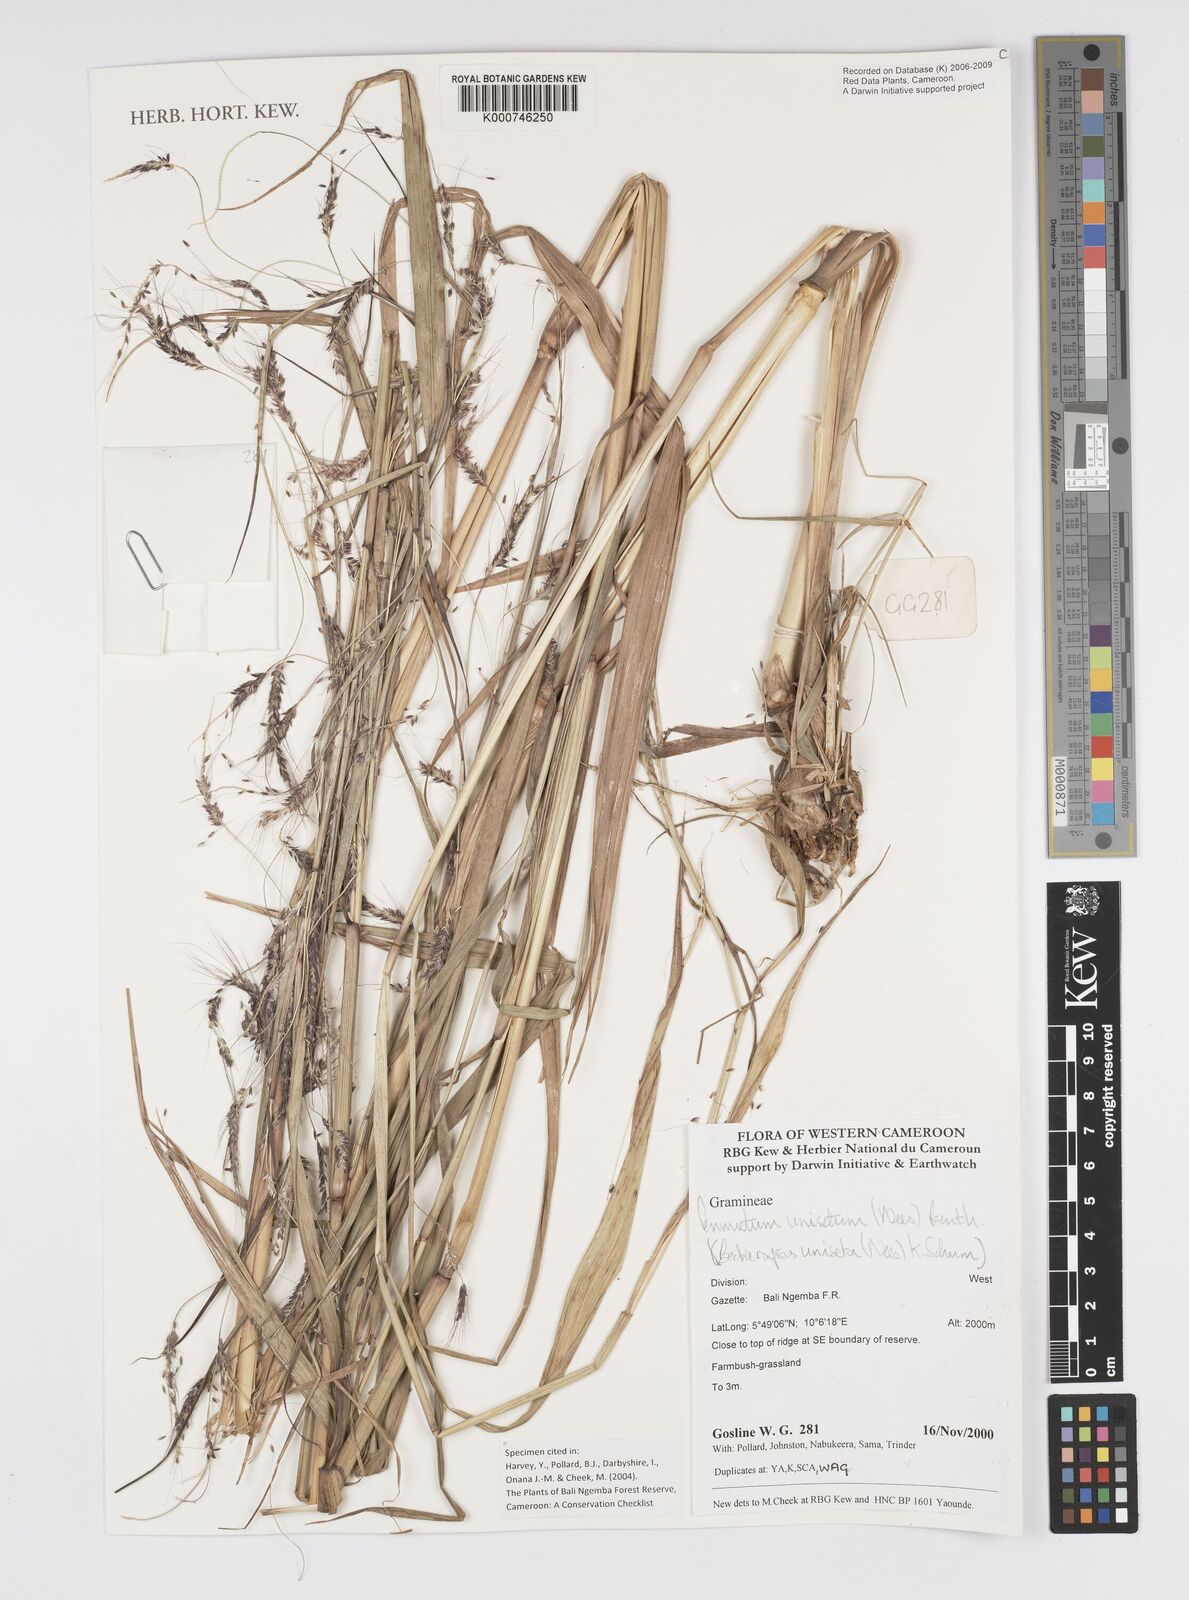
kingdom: Plantae
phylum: Tracheophyta
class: Liliopsida
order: Poales
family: Poaceae
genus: Cenchrus
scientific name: Cenchrus unisetus
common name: Natal grass
